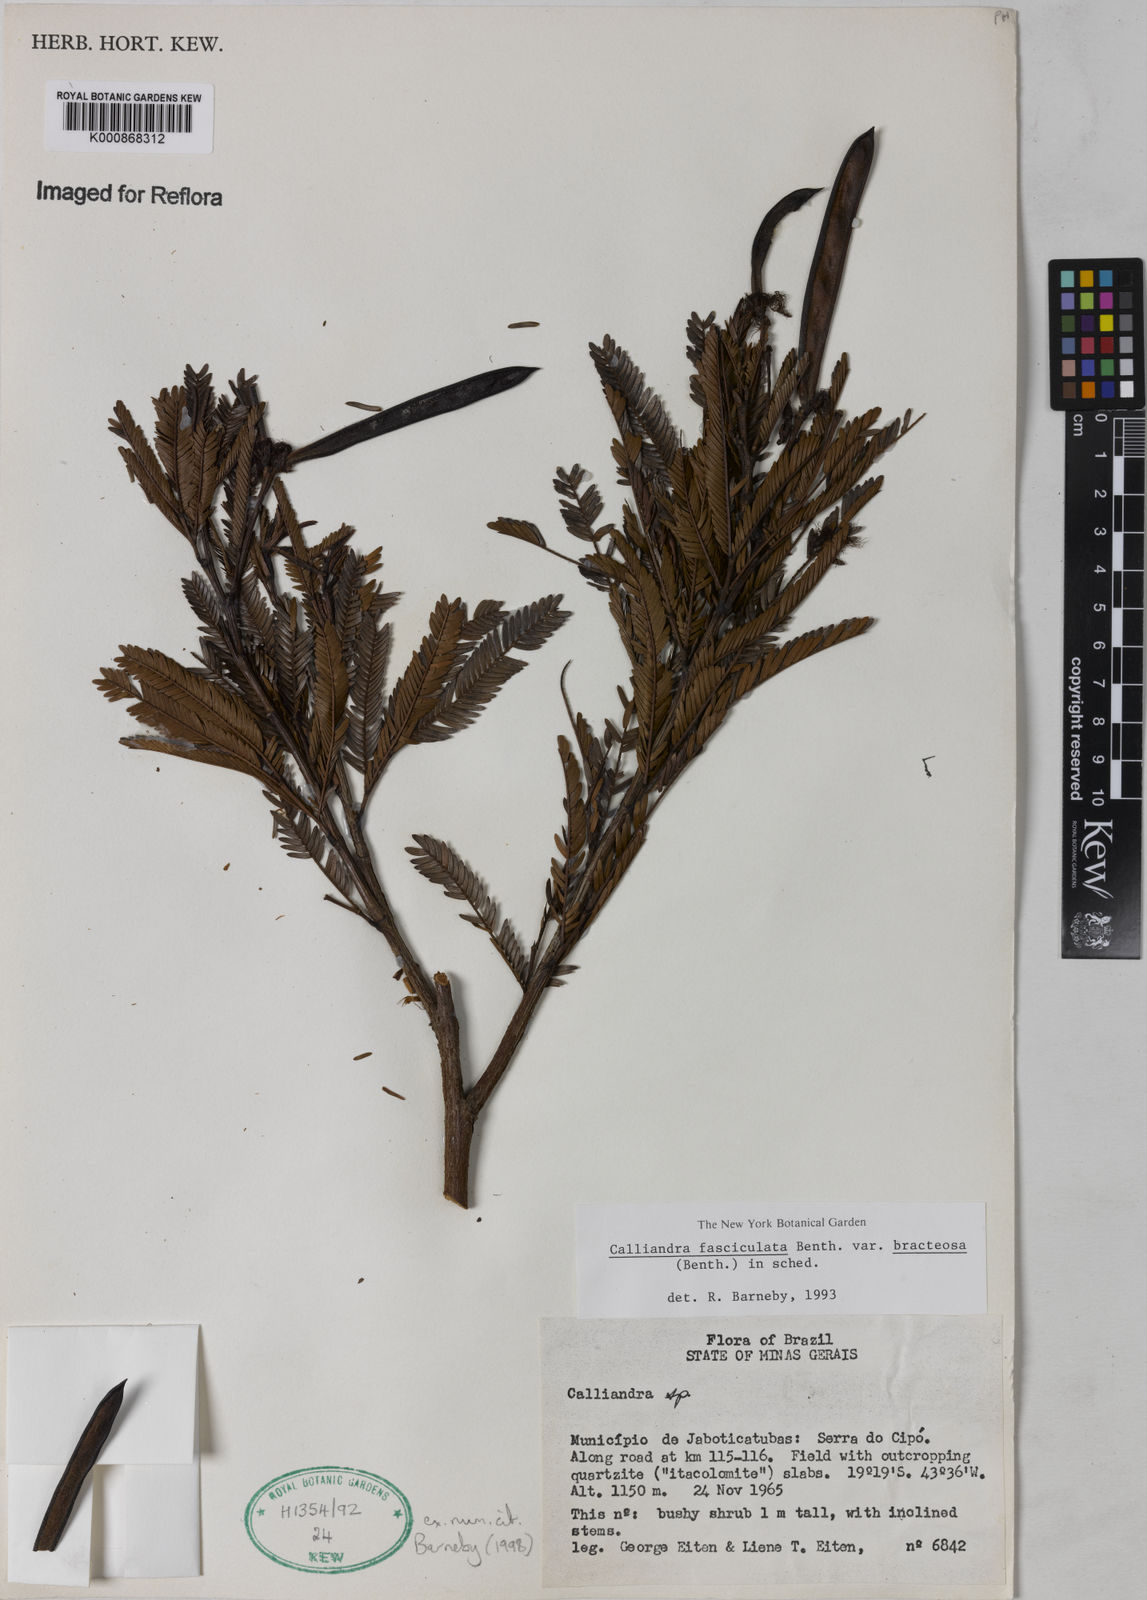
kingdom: Plantae
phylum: Tracheophyta
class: Magnoliopsida
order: Fabales
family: Fabaceae
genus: Calliandra
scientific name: Calliandra fasciculata
